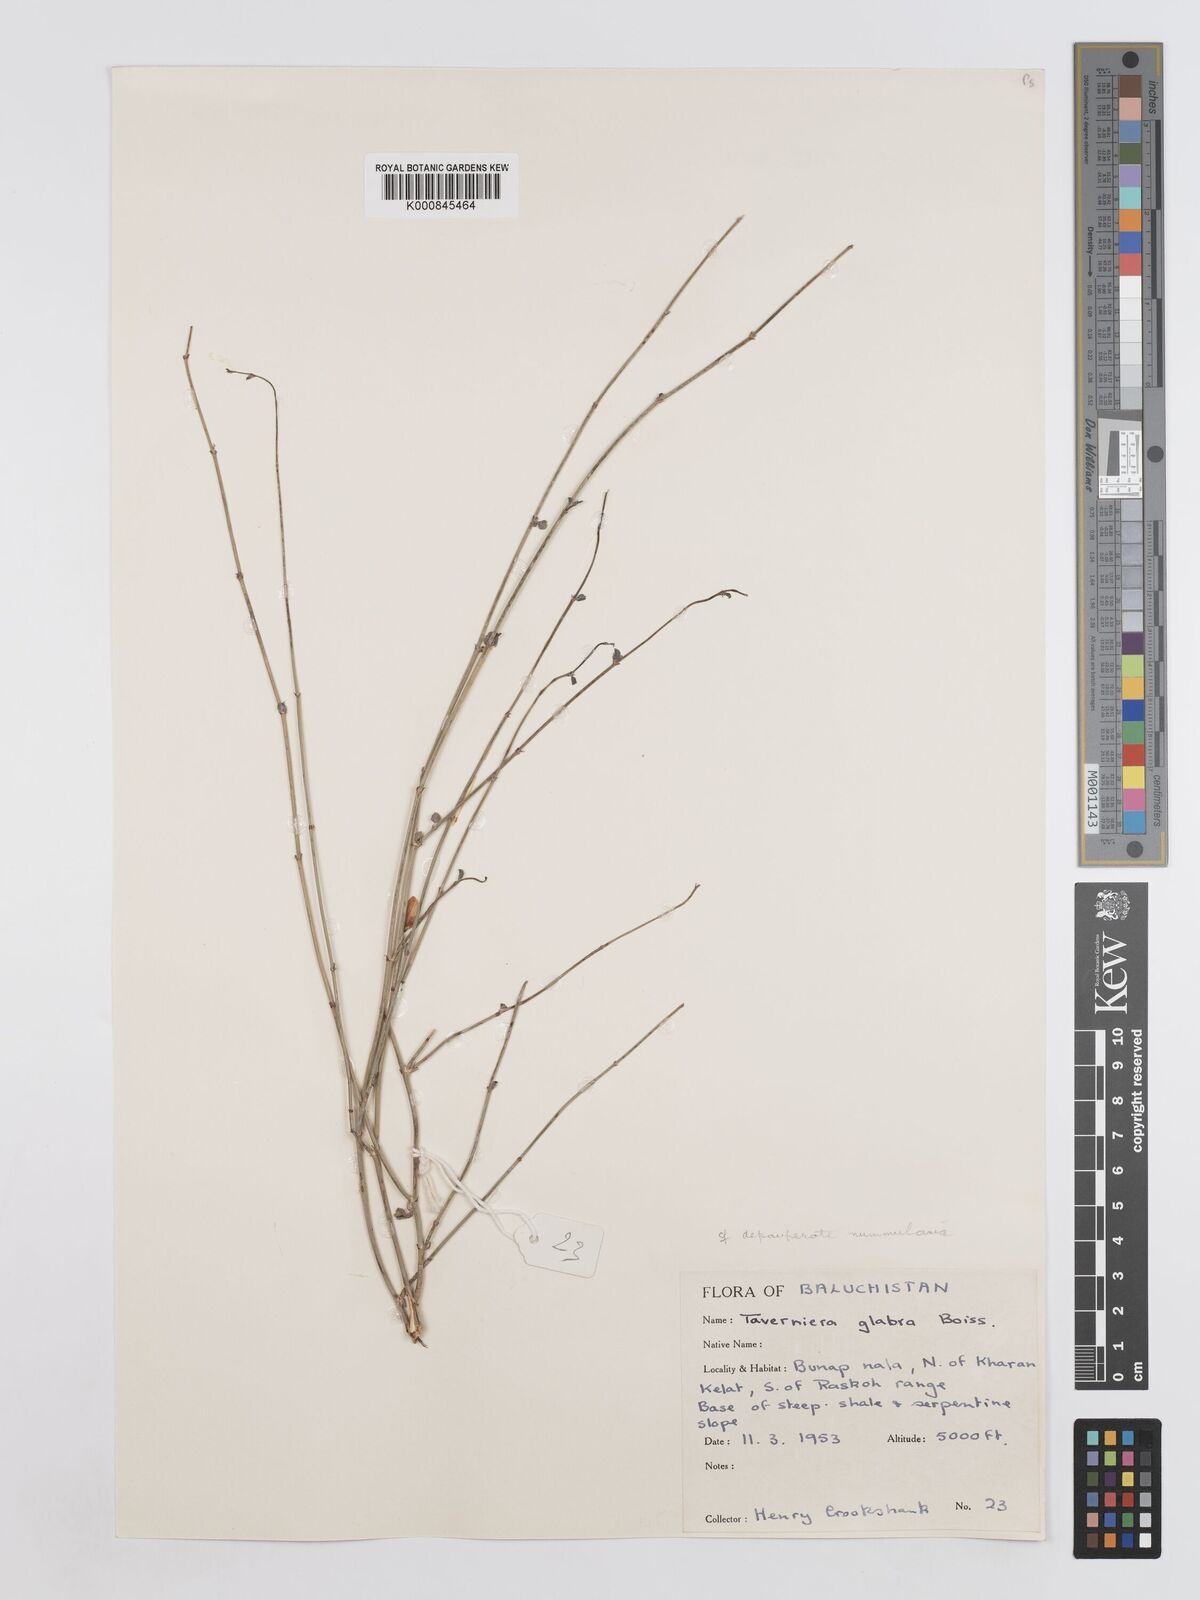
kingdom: Plantae
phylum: Tracheophyta
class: Magnoliopsida
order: Fabales
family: Fabaceae
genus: Taverniera
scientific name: Taverniera nummularia
